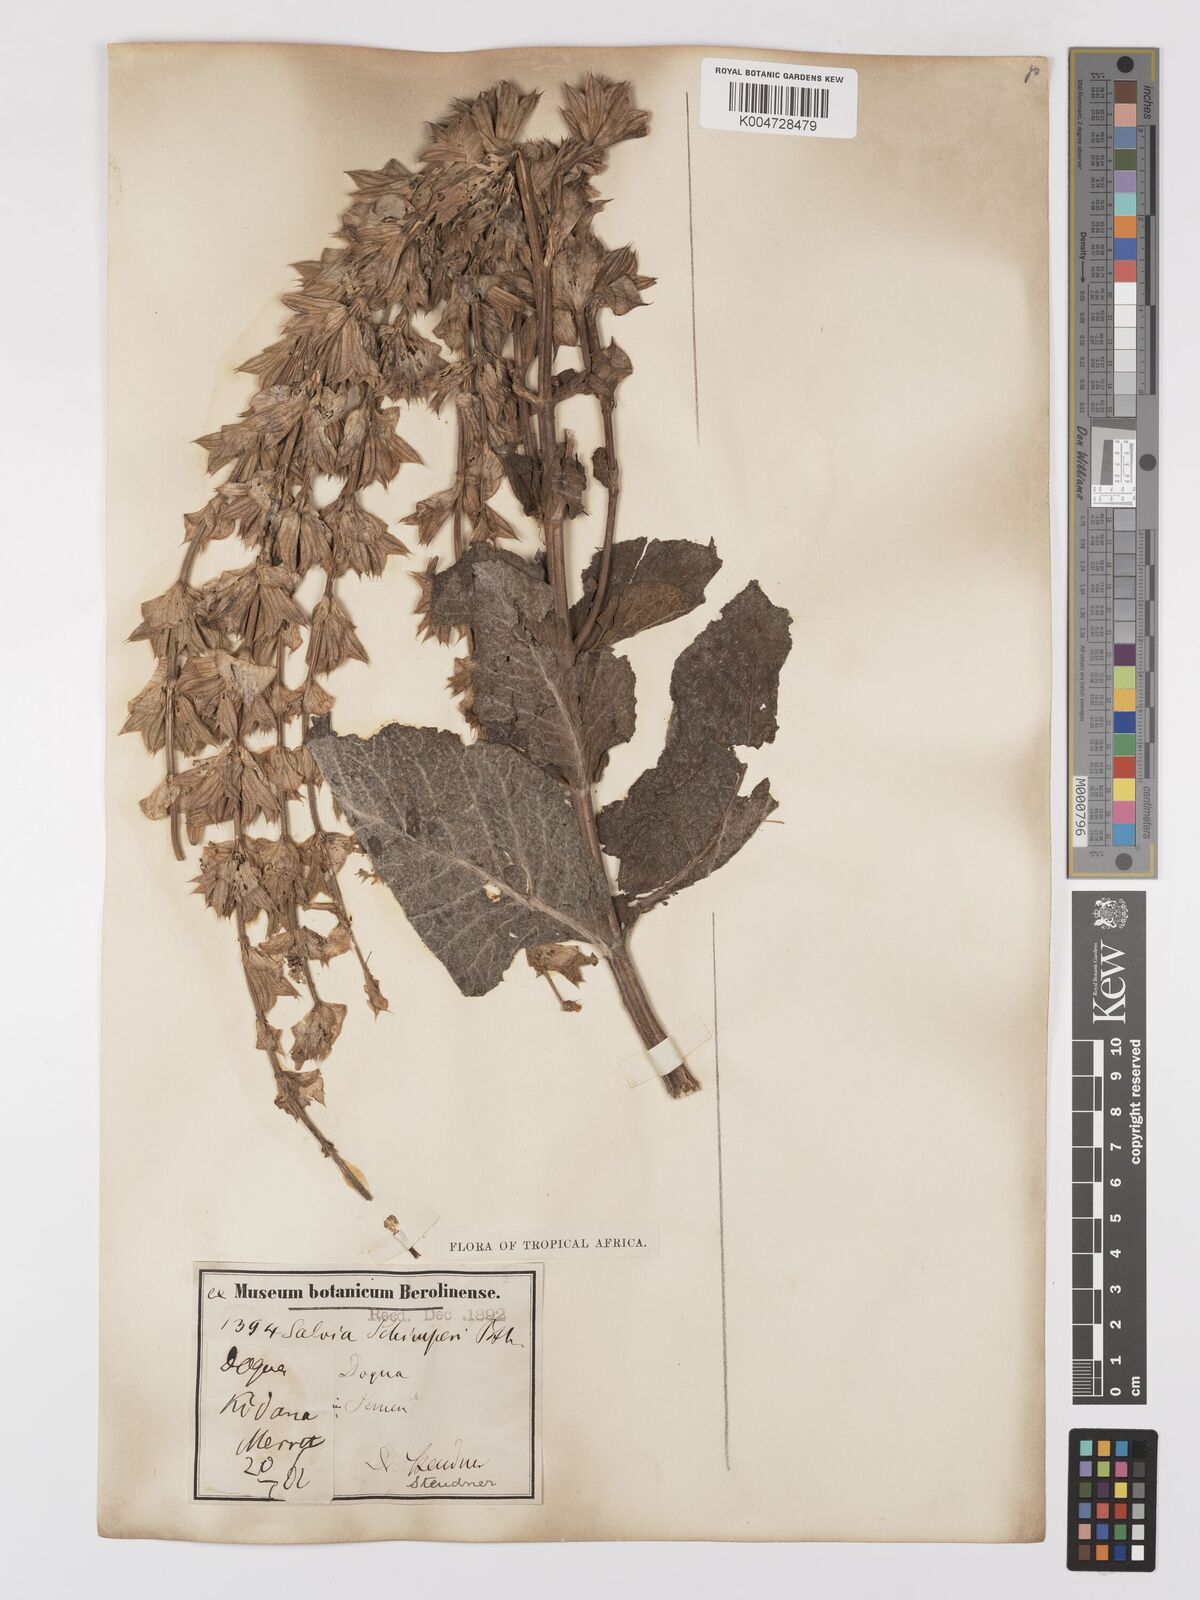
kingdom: Plantae
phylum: Tracheophyta
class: Magnoliopsida
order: Lamiales
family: Lamiaceae
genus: Salvia
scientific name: Salvia schimperi
